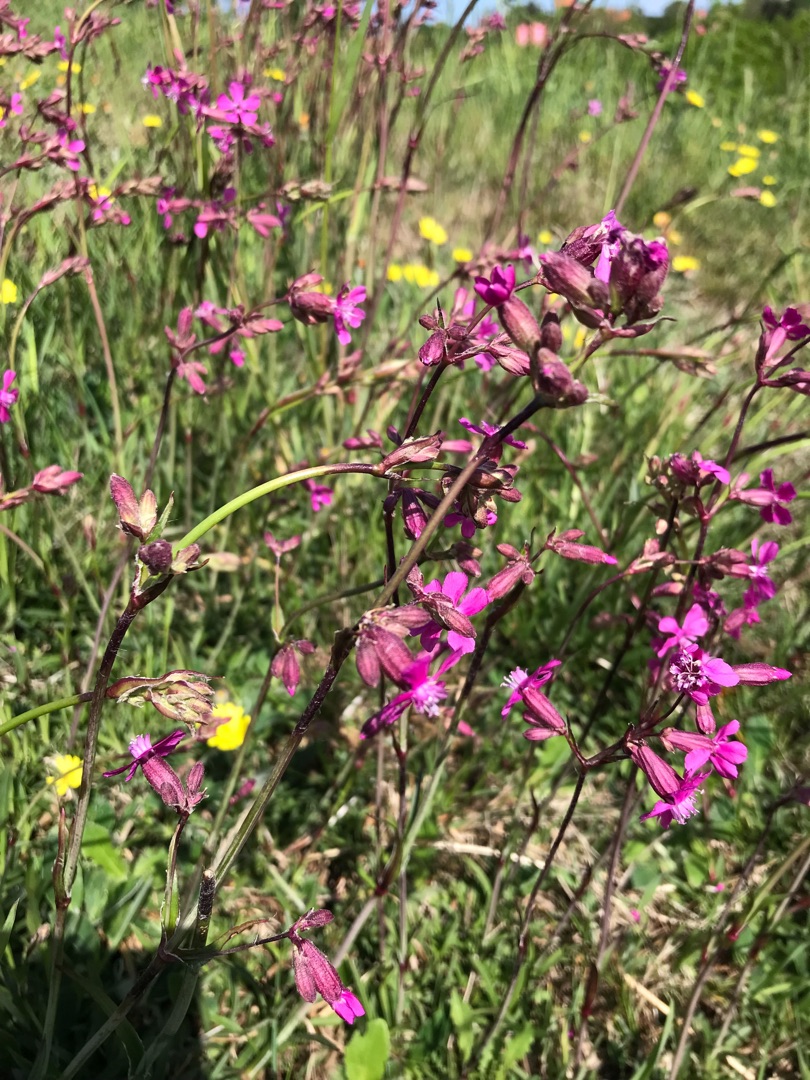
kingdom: Plantae
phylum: Tracheophyta
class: Magnoliopsida
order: Caryophyllales
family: Caryophyllaceae
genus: Viscaria
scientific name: Viscaria vulgaris
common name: Tjærenellike
